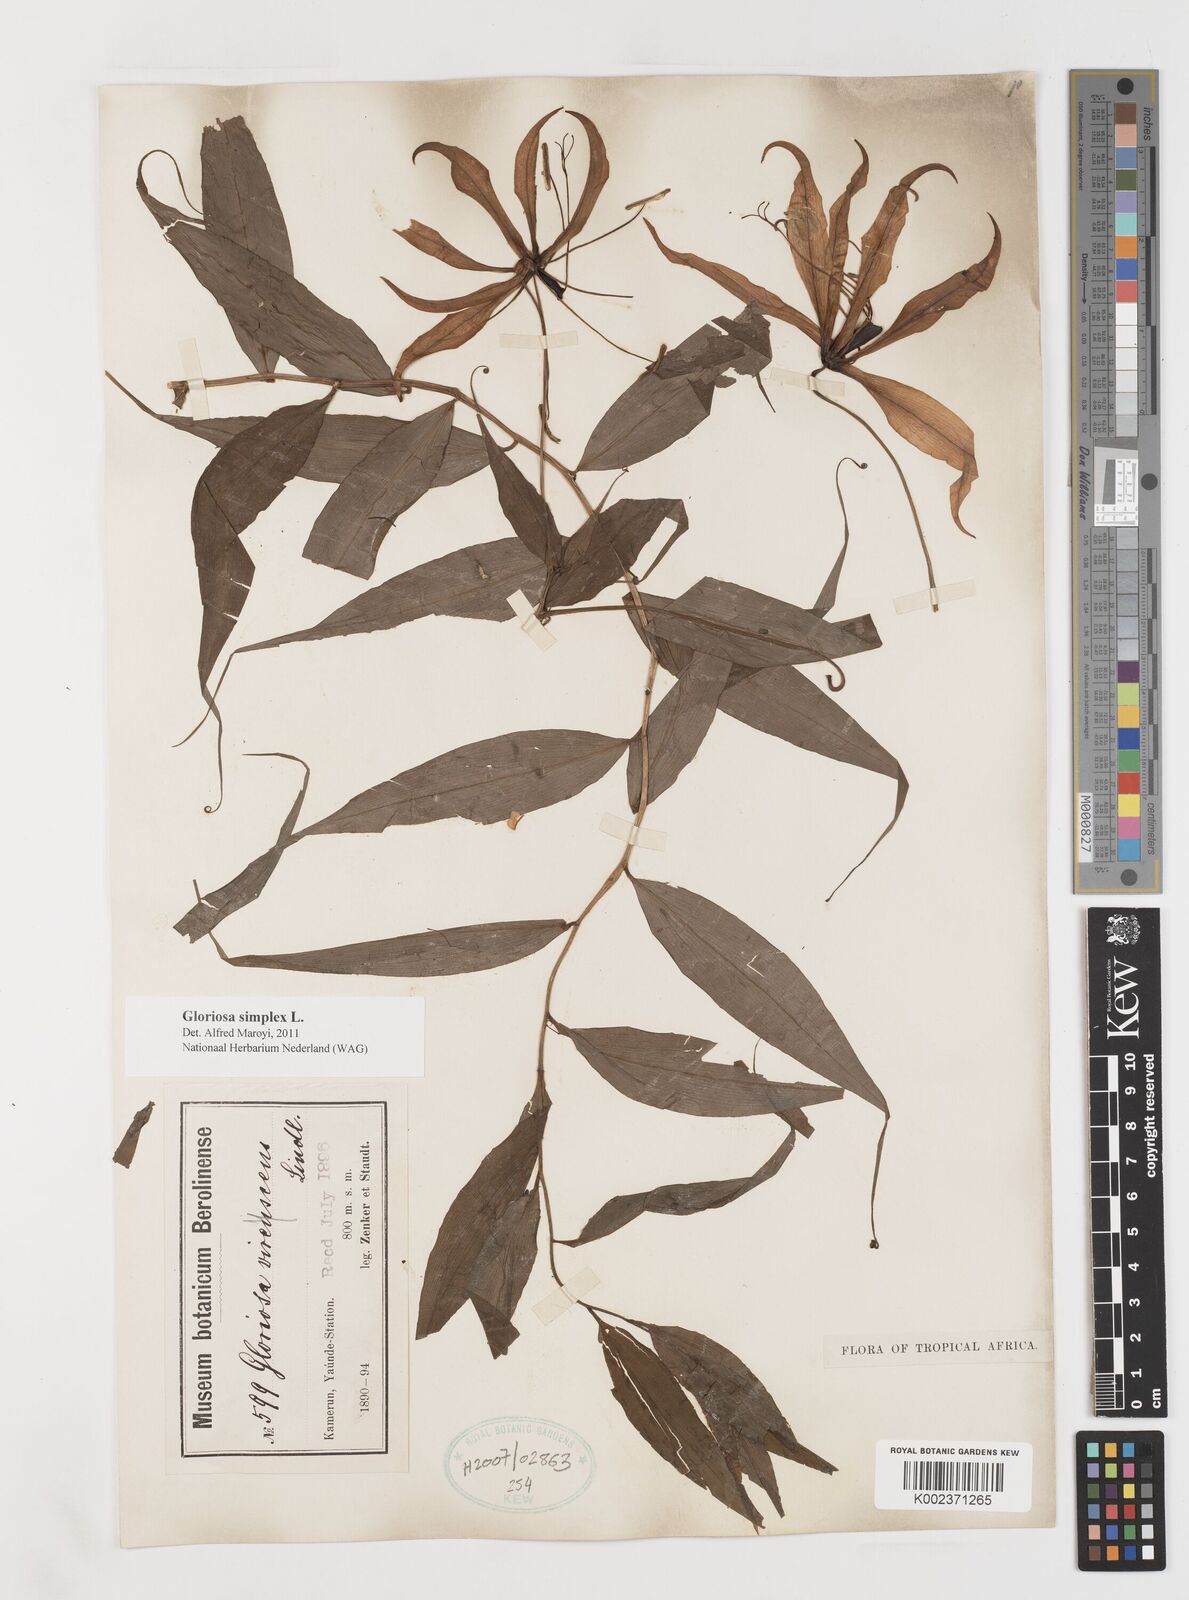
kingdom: Plantae
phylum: Tracheophyta
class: Liliopsida
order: Liliales
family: Colchicaceae
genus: Gloriosa
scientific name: Gloriosa simplex
